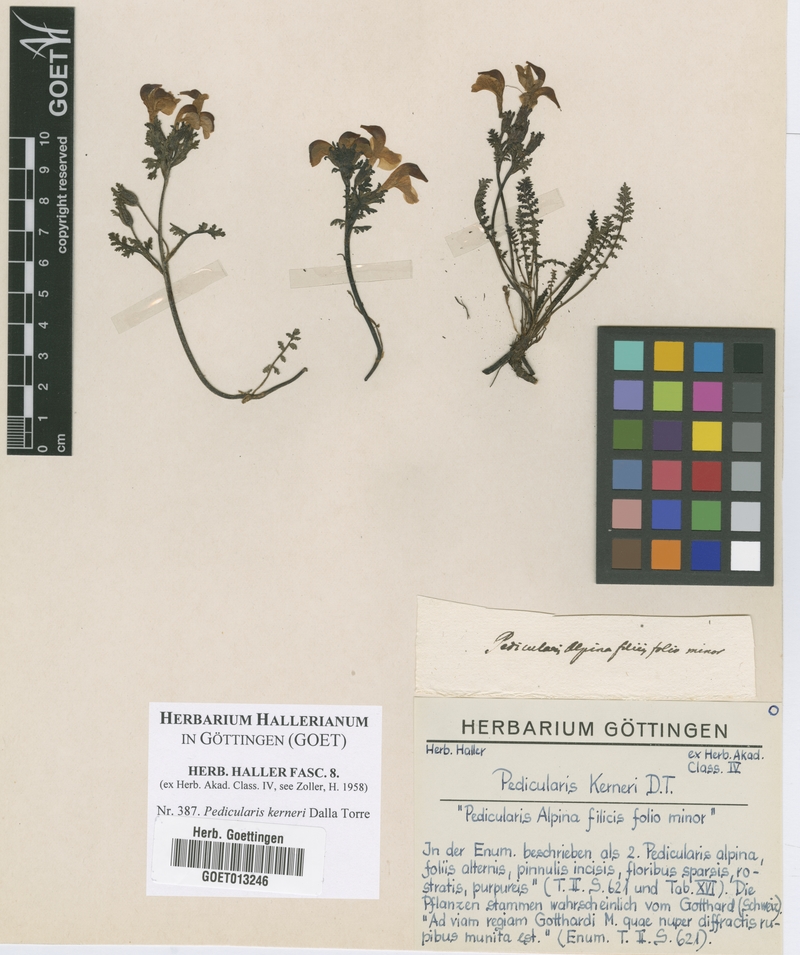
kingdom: Plantae
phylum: Tracheophyta
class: Magnoliopsida
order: Lamiales
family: Orobanchaceae
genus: Pedicularis
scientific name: Pedicularis kerneri
